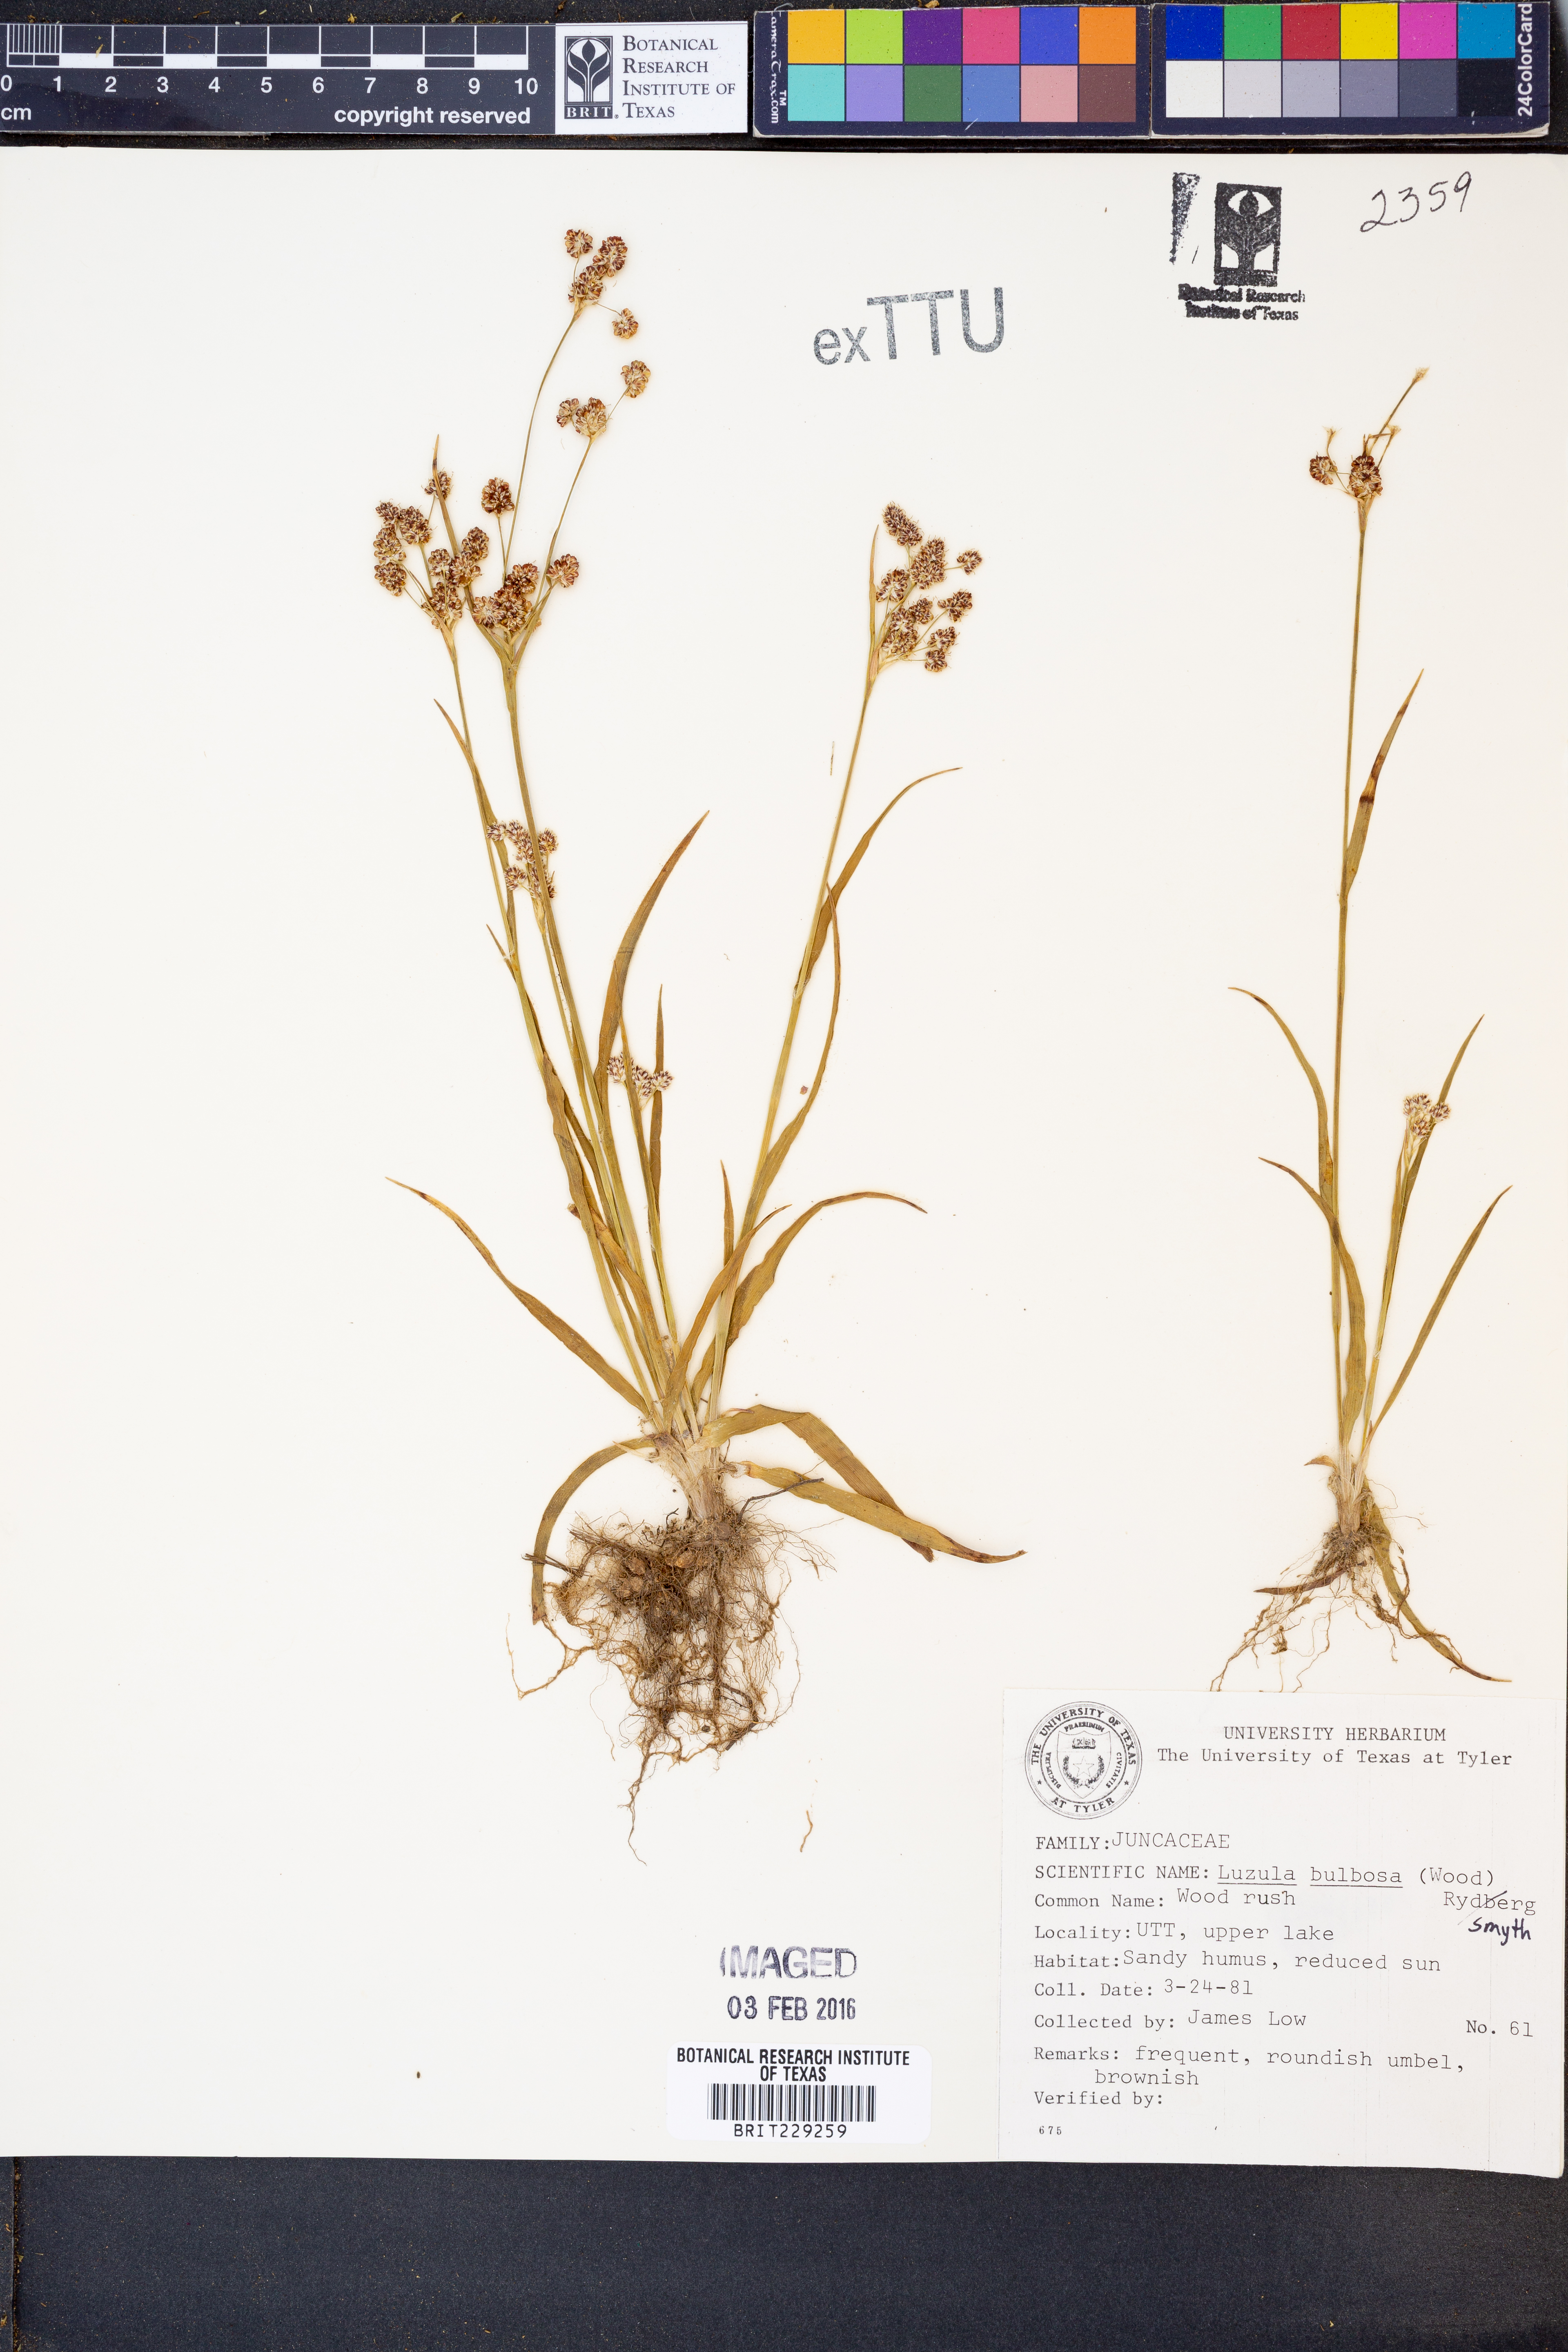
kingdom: Plantae
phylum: Tracheophyta
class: Liliopsida
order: Poales
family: Juncaceae
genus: Luzula
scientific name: Luzula bulbosa
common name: Bulbous woodrush
